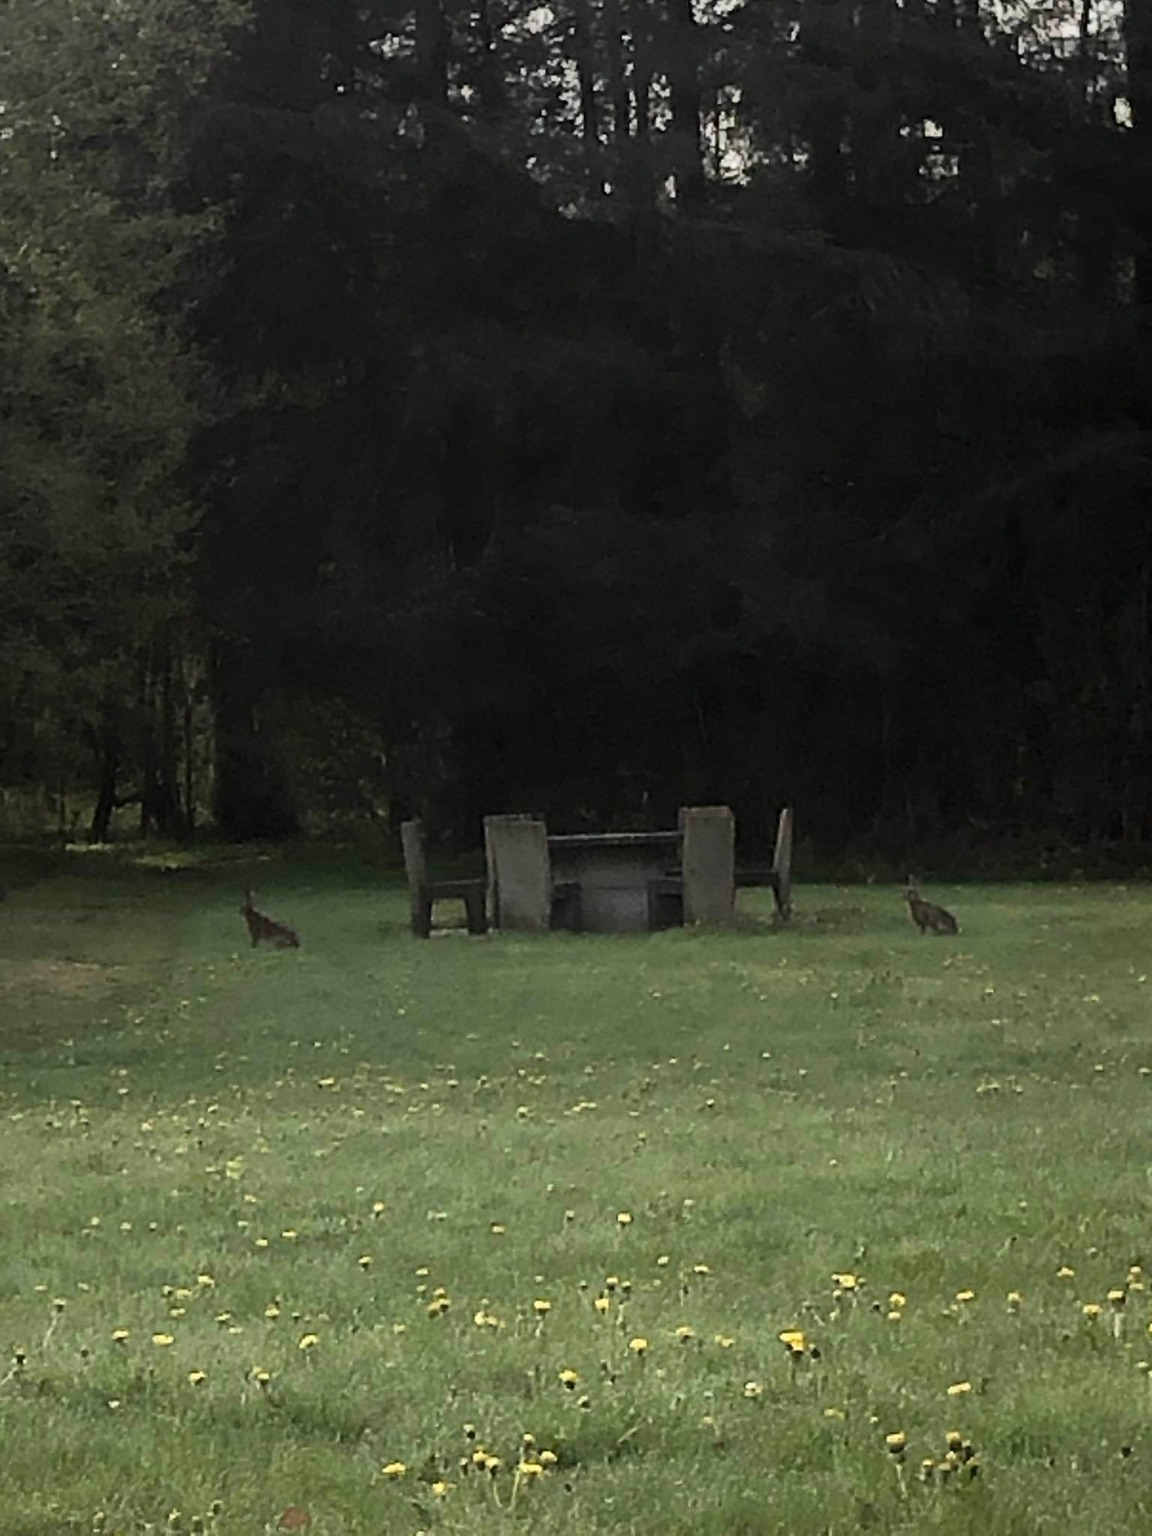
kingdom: Animalia
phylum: Chordata
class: Mammalia
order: Lagomorpha
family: Leporidae
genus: Lepus
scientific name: Lepus europaeus
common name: Hare
